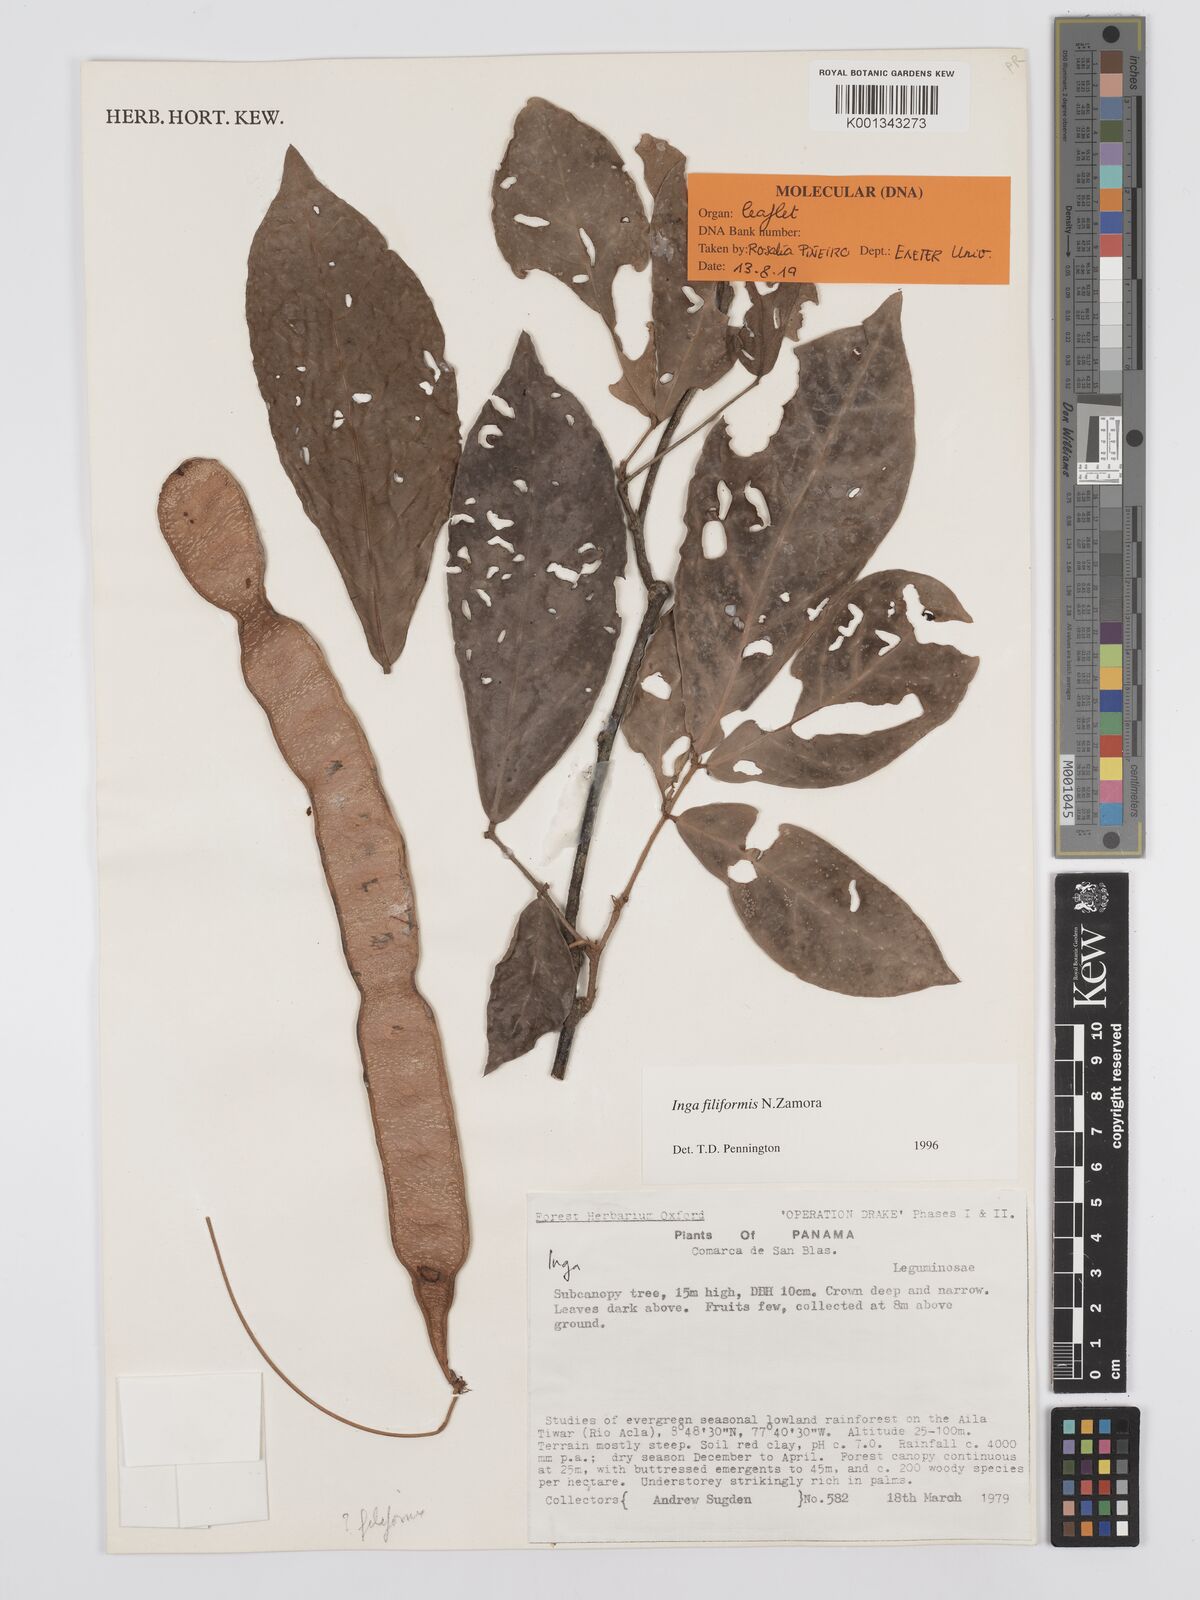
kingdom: Plantae
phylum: Tracheophyta
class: Magnoliopsida
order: Fabales
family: Fabaceae
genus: Inga
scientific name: Inga filiformis
